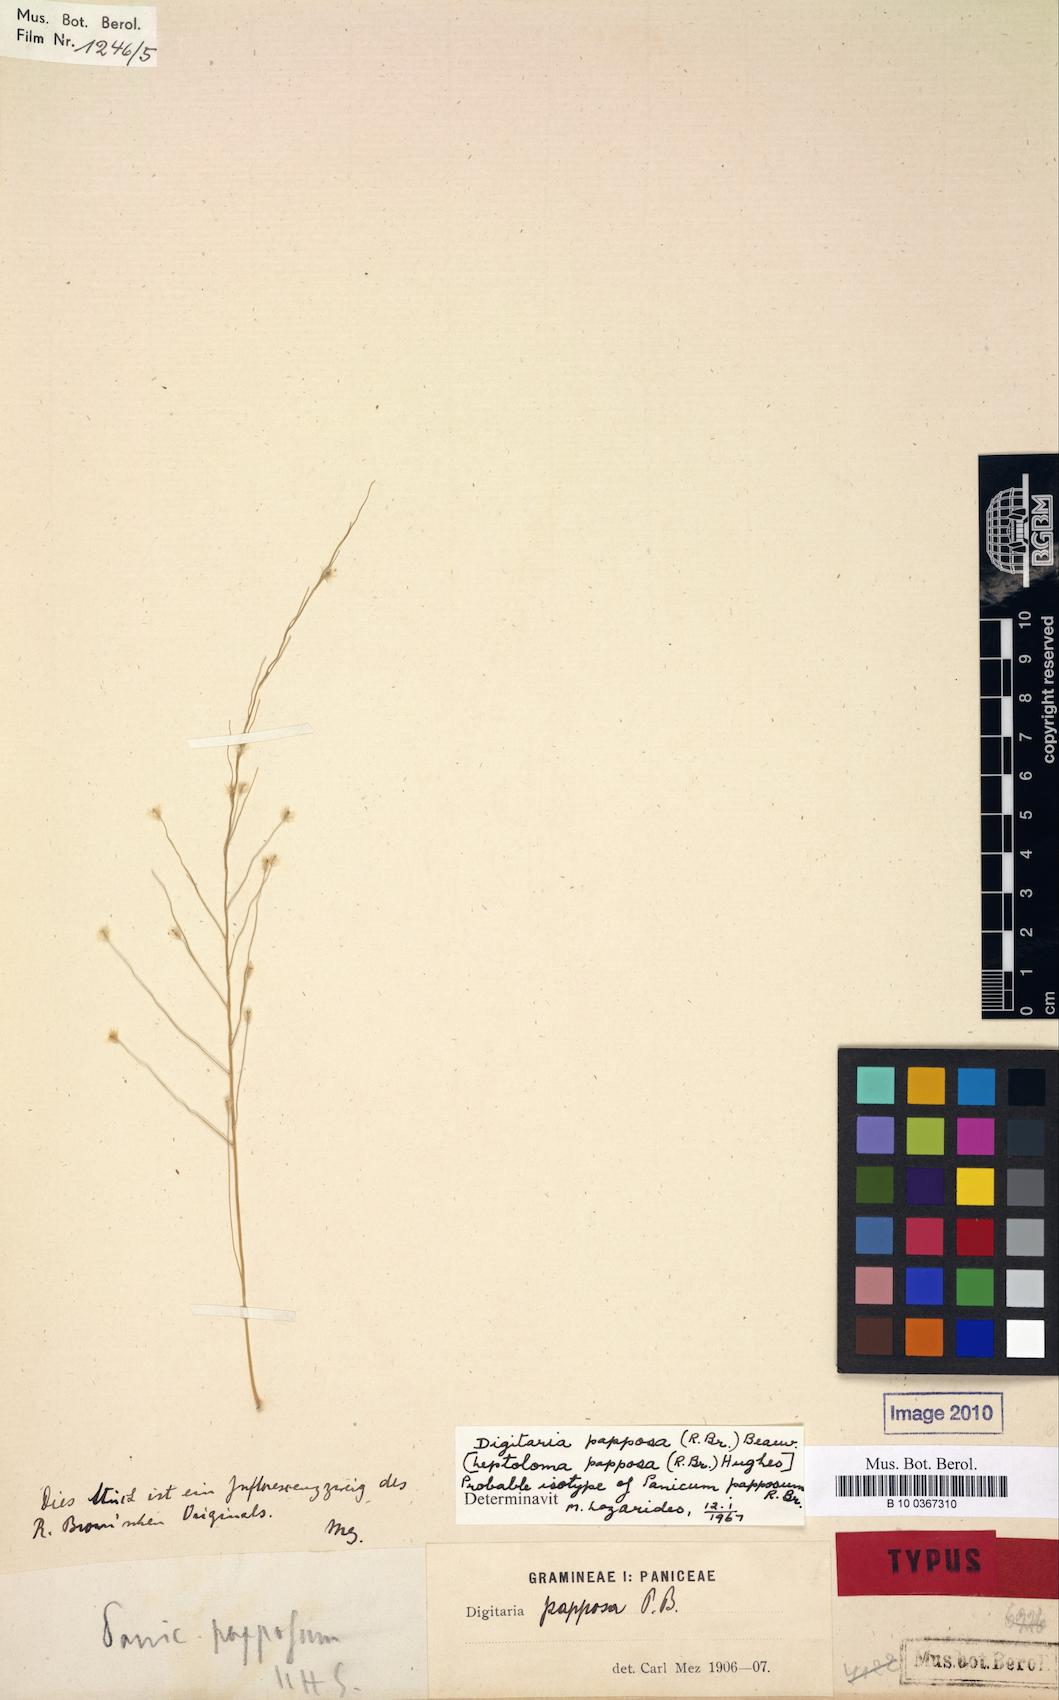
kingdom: Plantae
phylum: Tracheophyta
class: Liliopsida
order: Poales
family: Poaceae
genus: Digitaria
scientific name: Digitaria papposa
